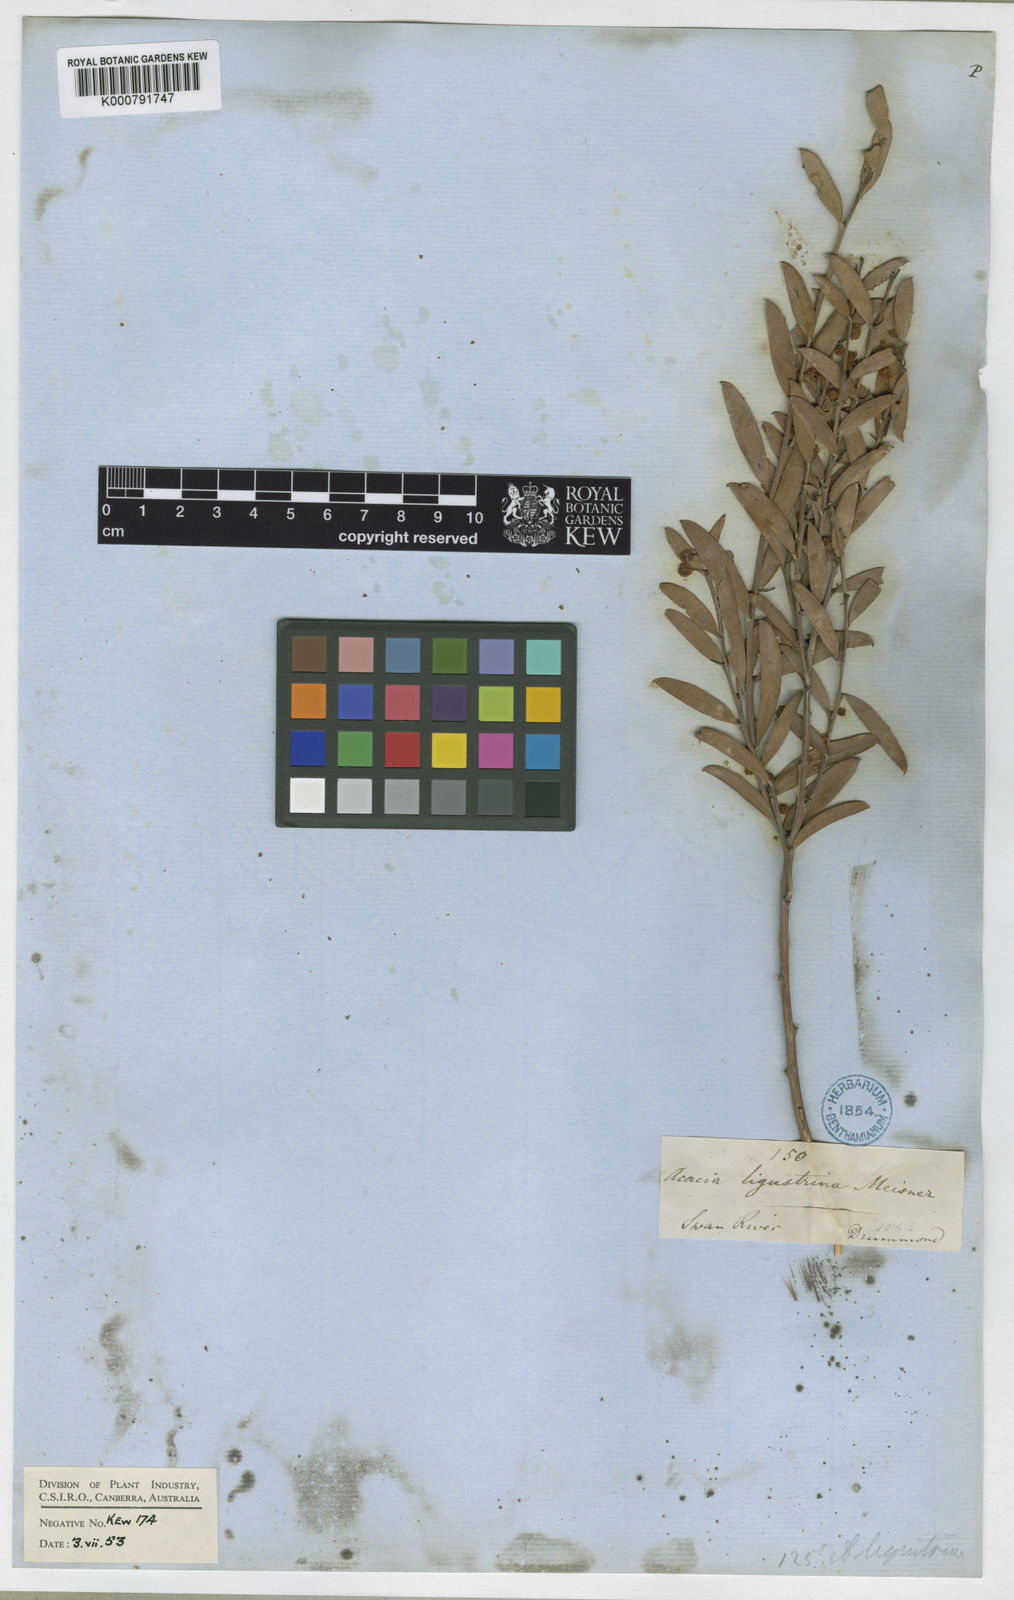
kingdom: Plantae
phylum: Tracheophyta
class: Magnoliopsida
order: Fabales
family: Fabaceae
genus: Acacia
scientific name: Acacia ligustrina
